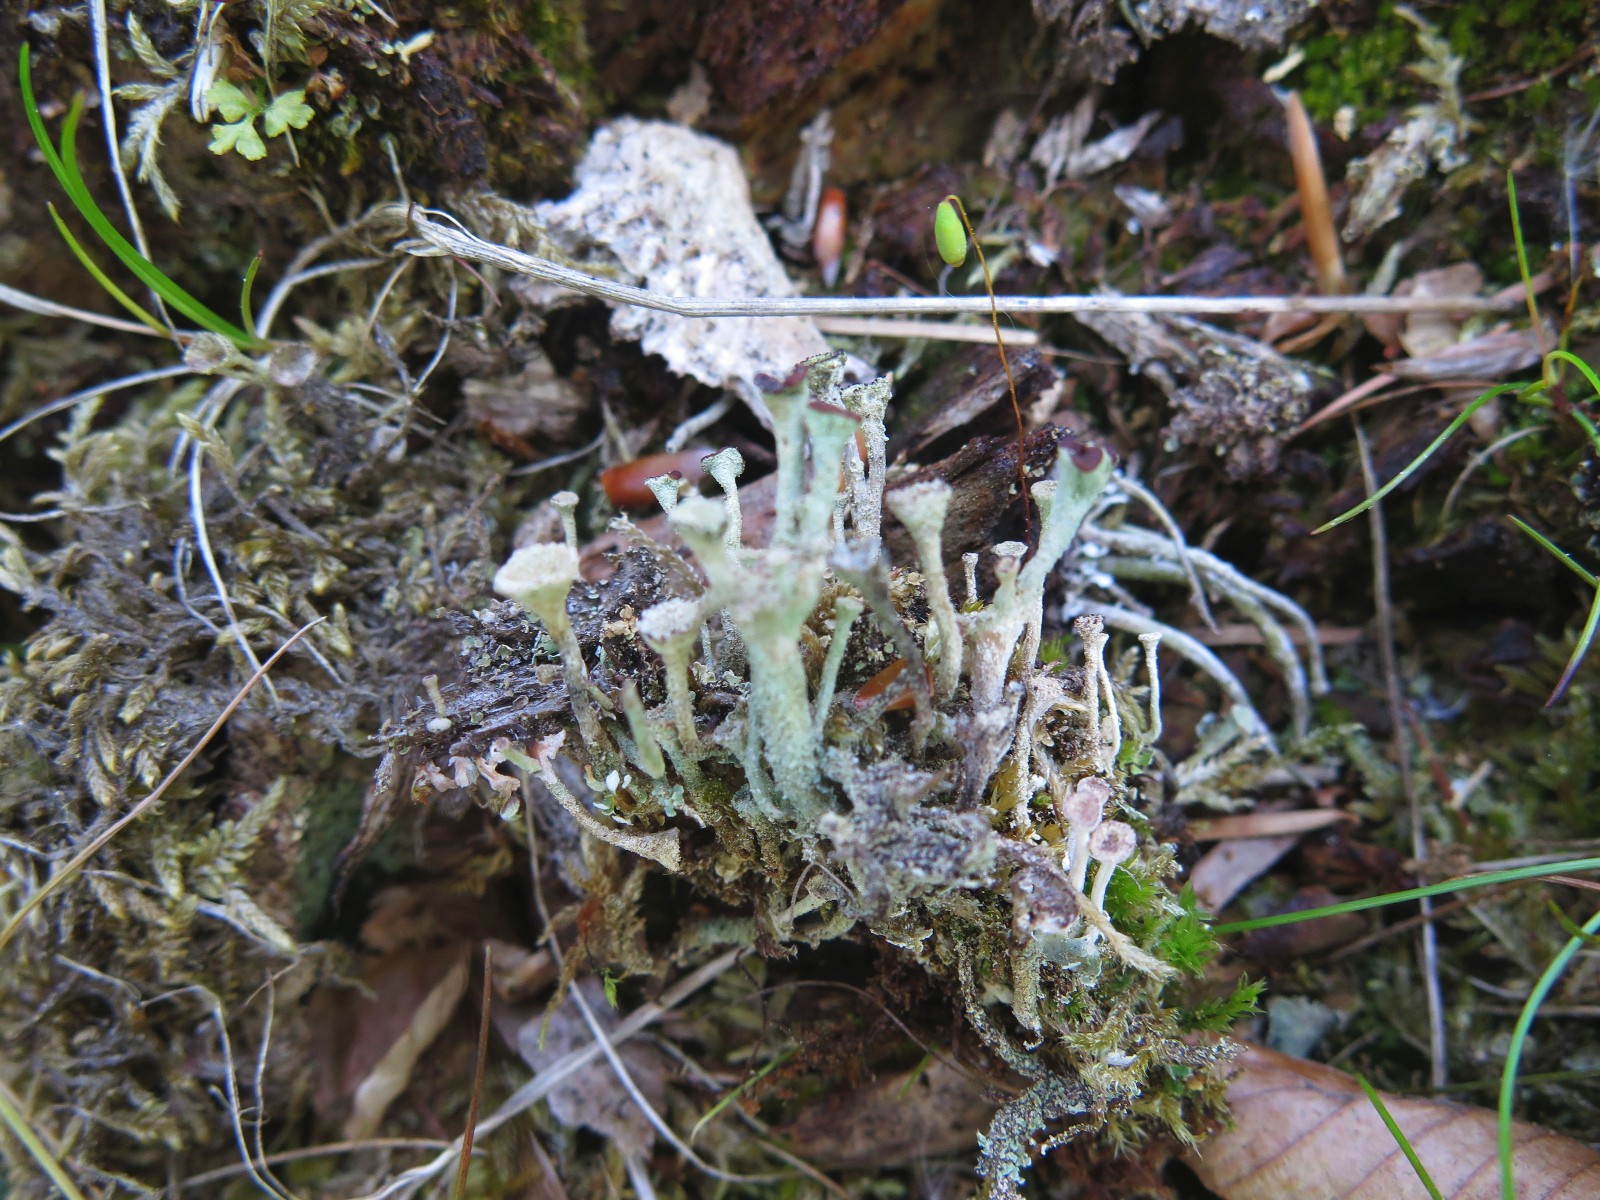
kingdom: Fungi
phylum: Ascomycota
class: Lecanoromycetes
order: Lecanorales
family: Cladoniaceae
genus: Cladonia
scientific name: Cladonia
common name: brungrøn bægerlav
